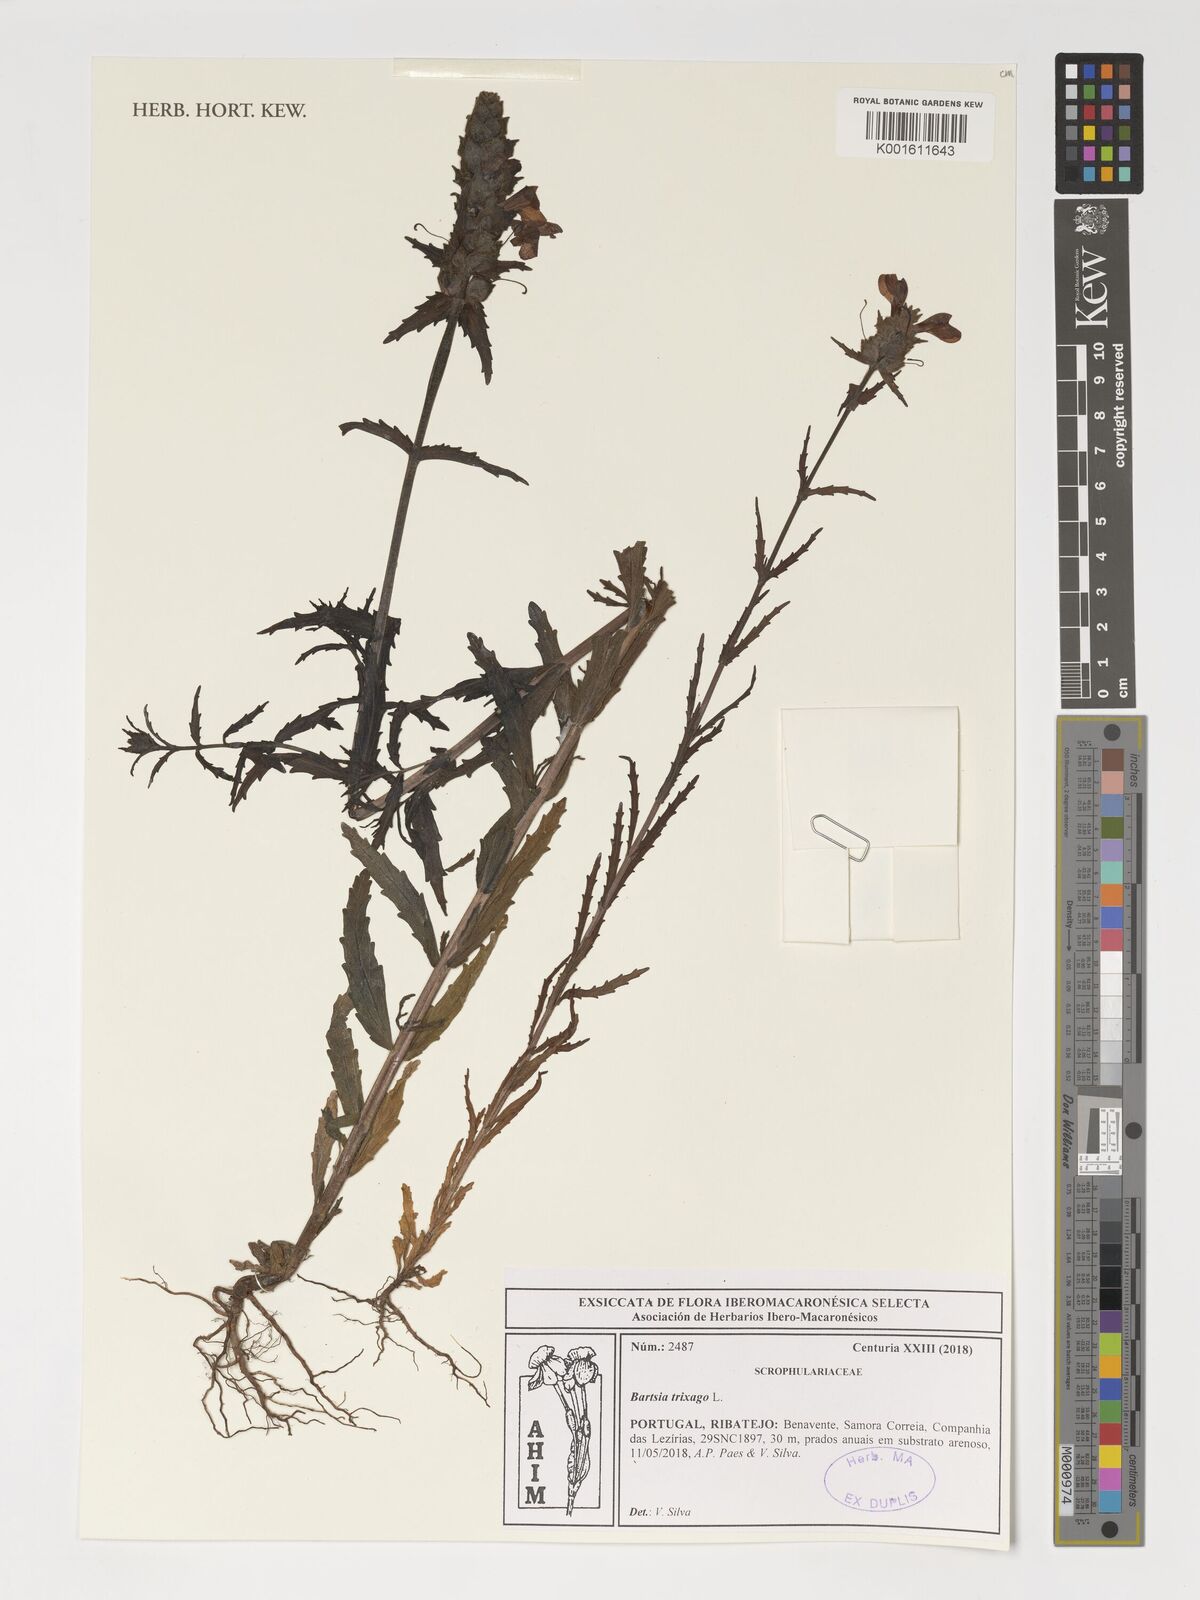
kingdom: Plantae
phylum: Tracheophyta
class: Magnoliopsida
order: Lamiales
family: Orobanchaceae
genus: Bellardia
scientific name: Bellardia trixago
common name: Mediterranean lineseed
